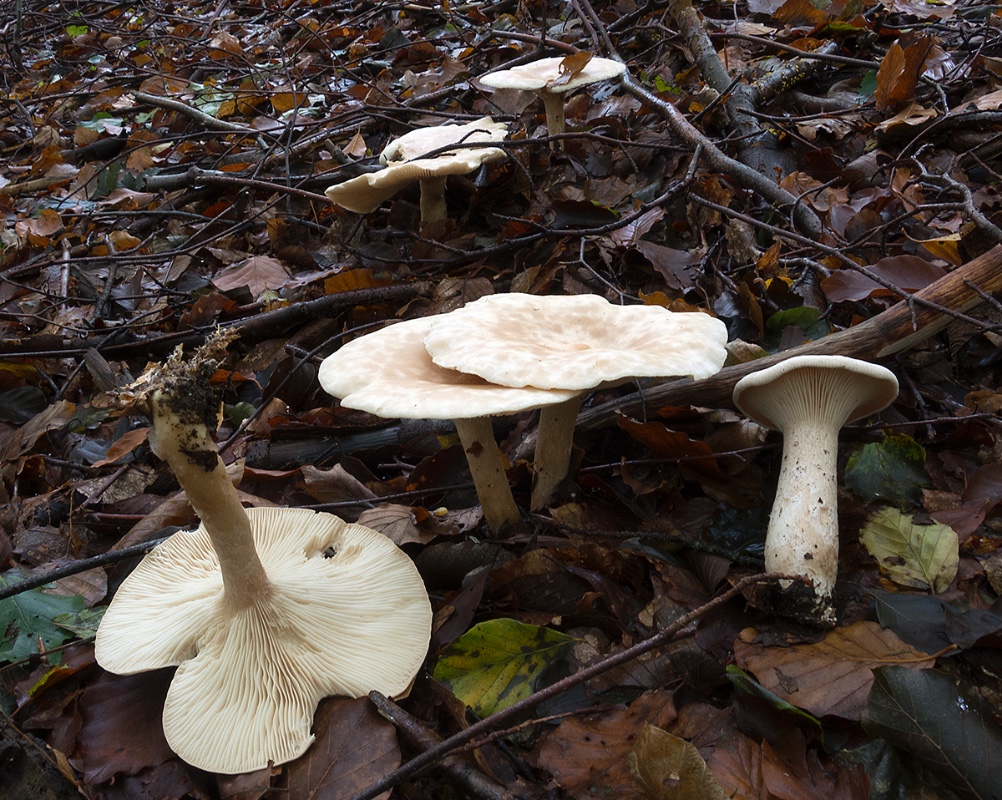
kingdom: Fungi
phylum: Basidiomycota
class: Agaricomycetes
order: Agaricales
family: Tricholomataceae
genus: Infundibulicybe
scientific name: Infundibulicybe geotropa
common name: stor tragthat
